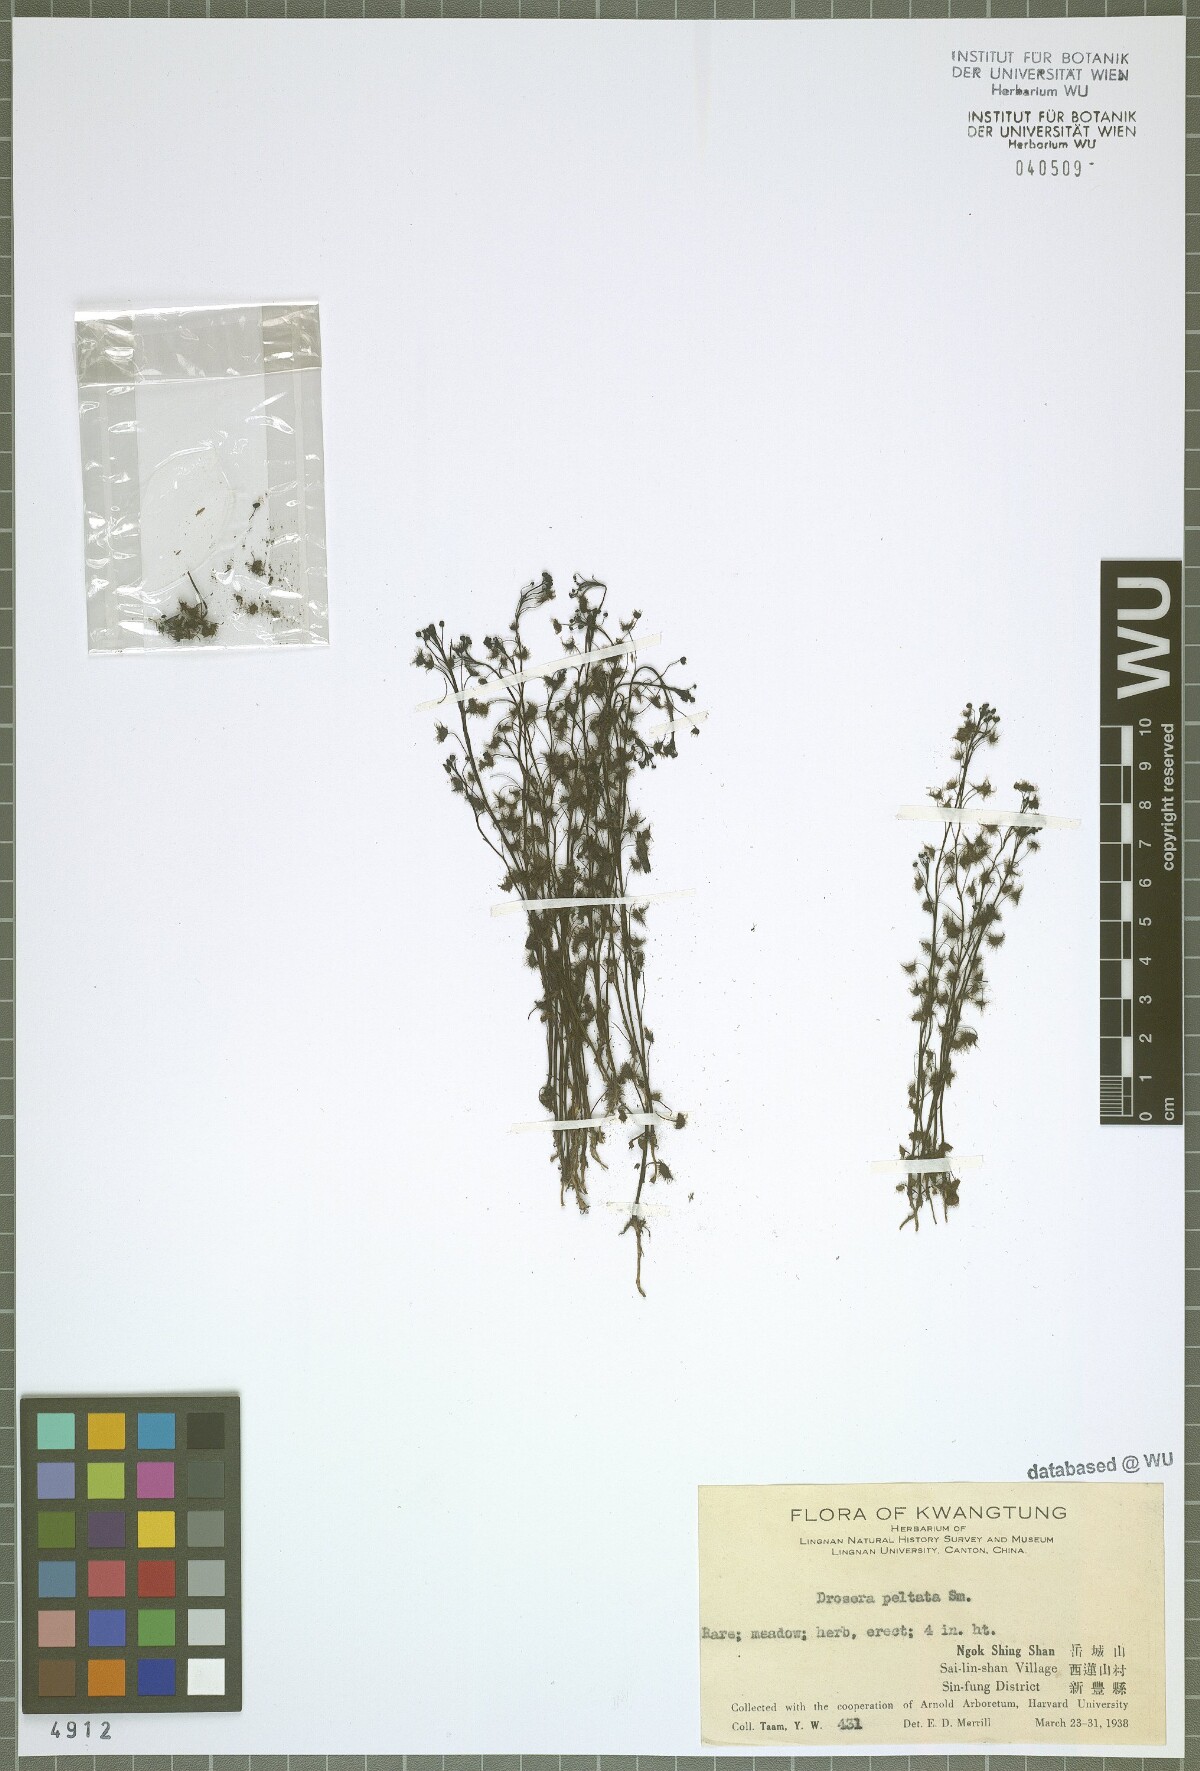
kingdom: Plantae
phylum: Tracheophyta
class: Magnoliopsida
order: Caryophyllales
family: Droseraceae
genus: Drosera
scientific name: Drosera peltata
